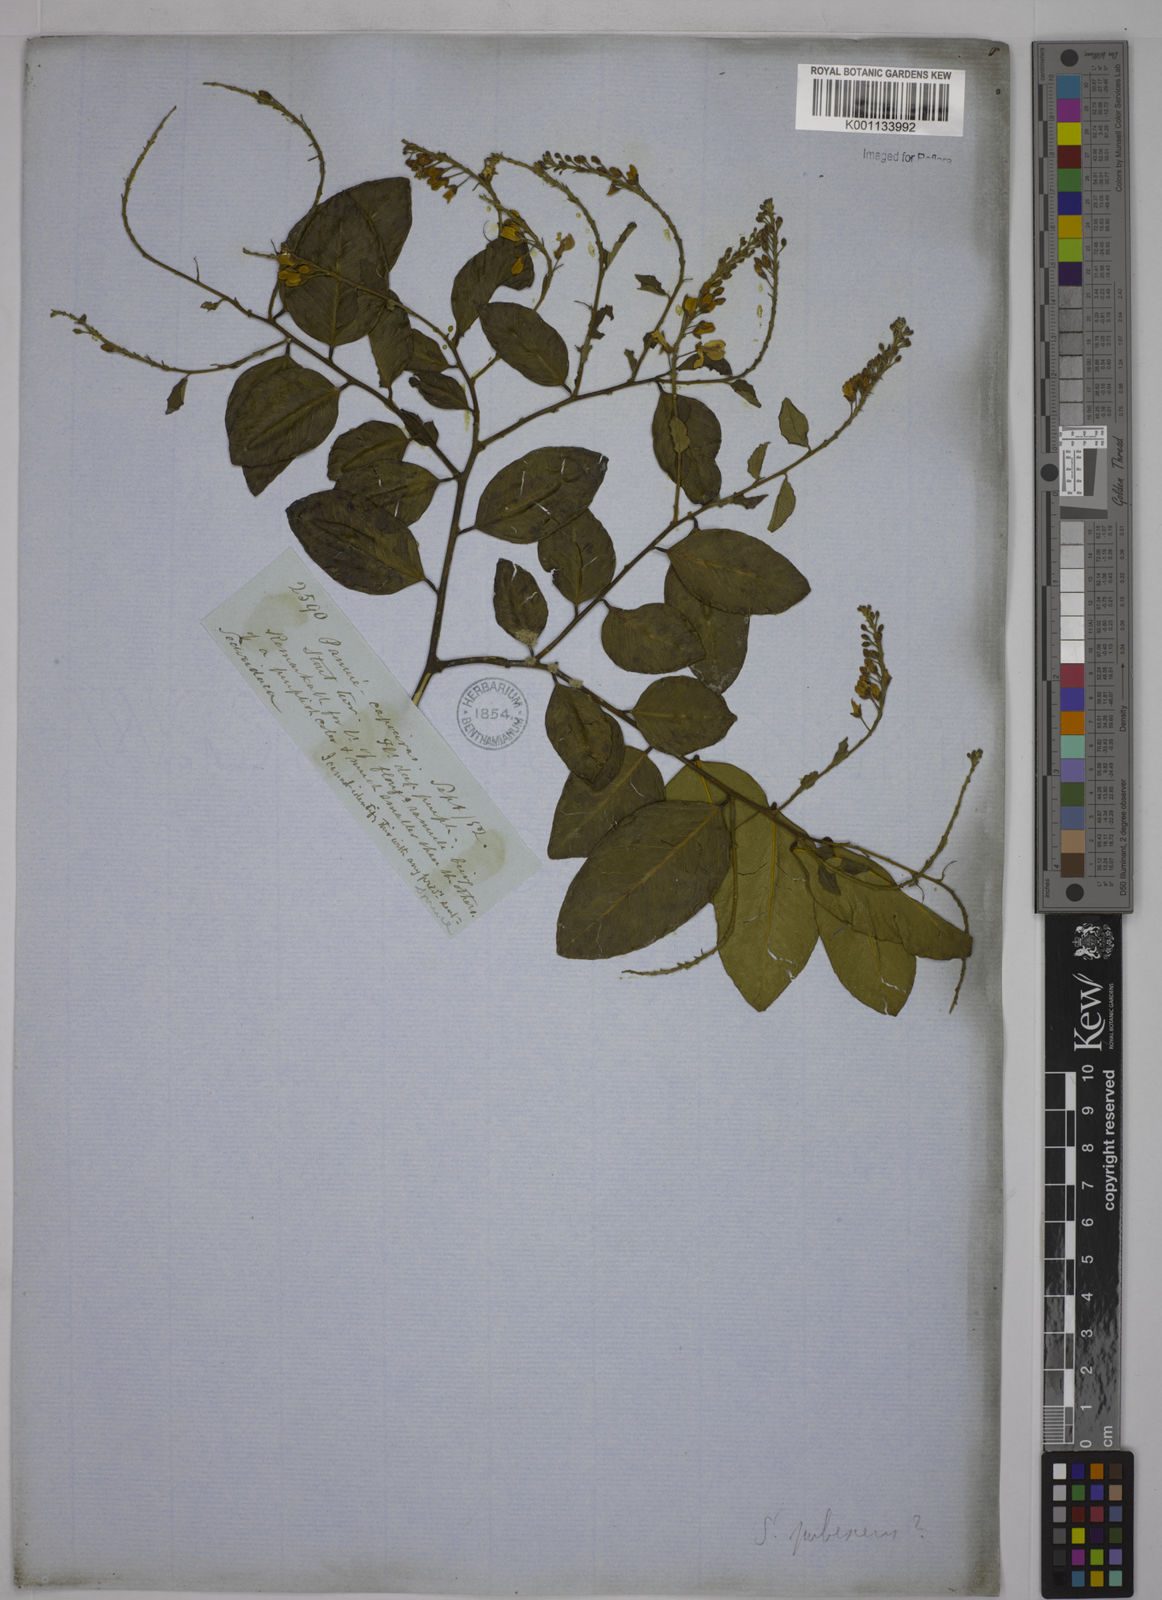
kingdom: Plantae
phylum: Tracheophyta
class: Magnoliopsida
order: Fabales
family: Polygalaceae
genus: Securidaca
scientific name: Securidaca diversifolia
